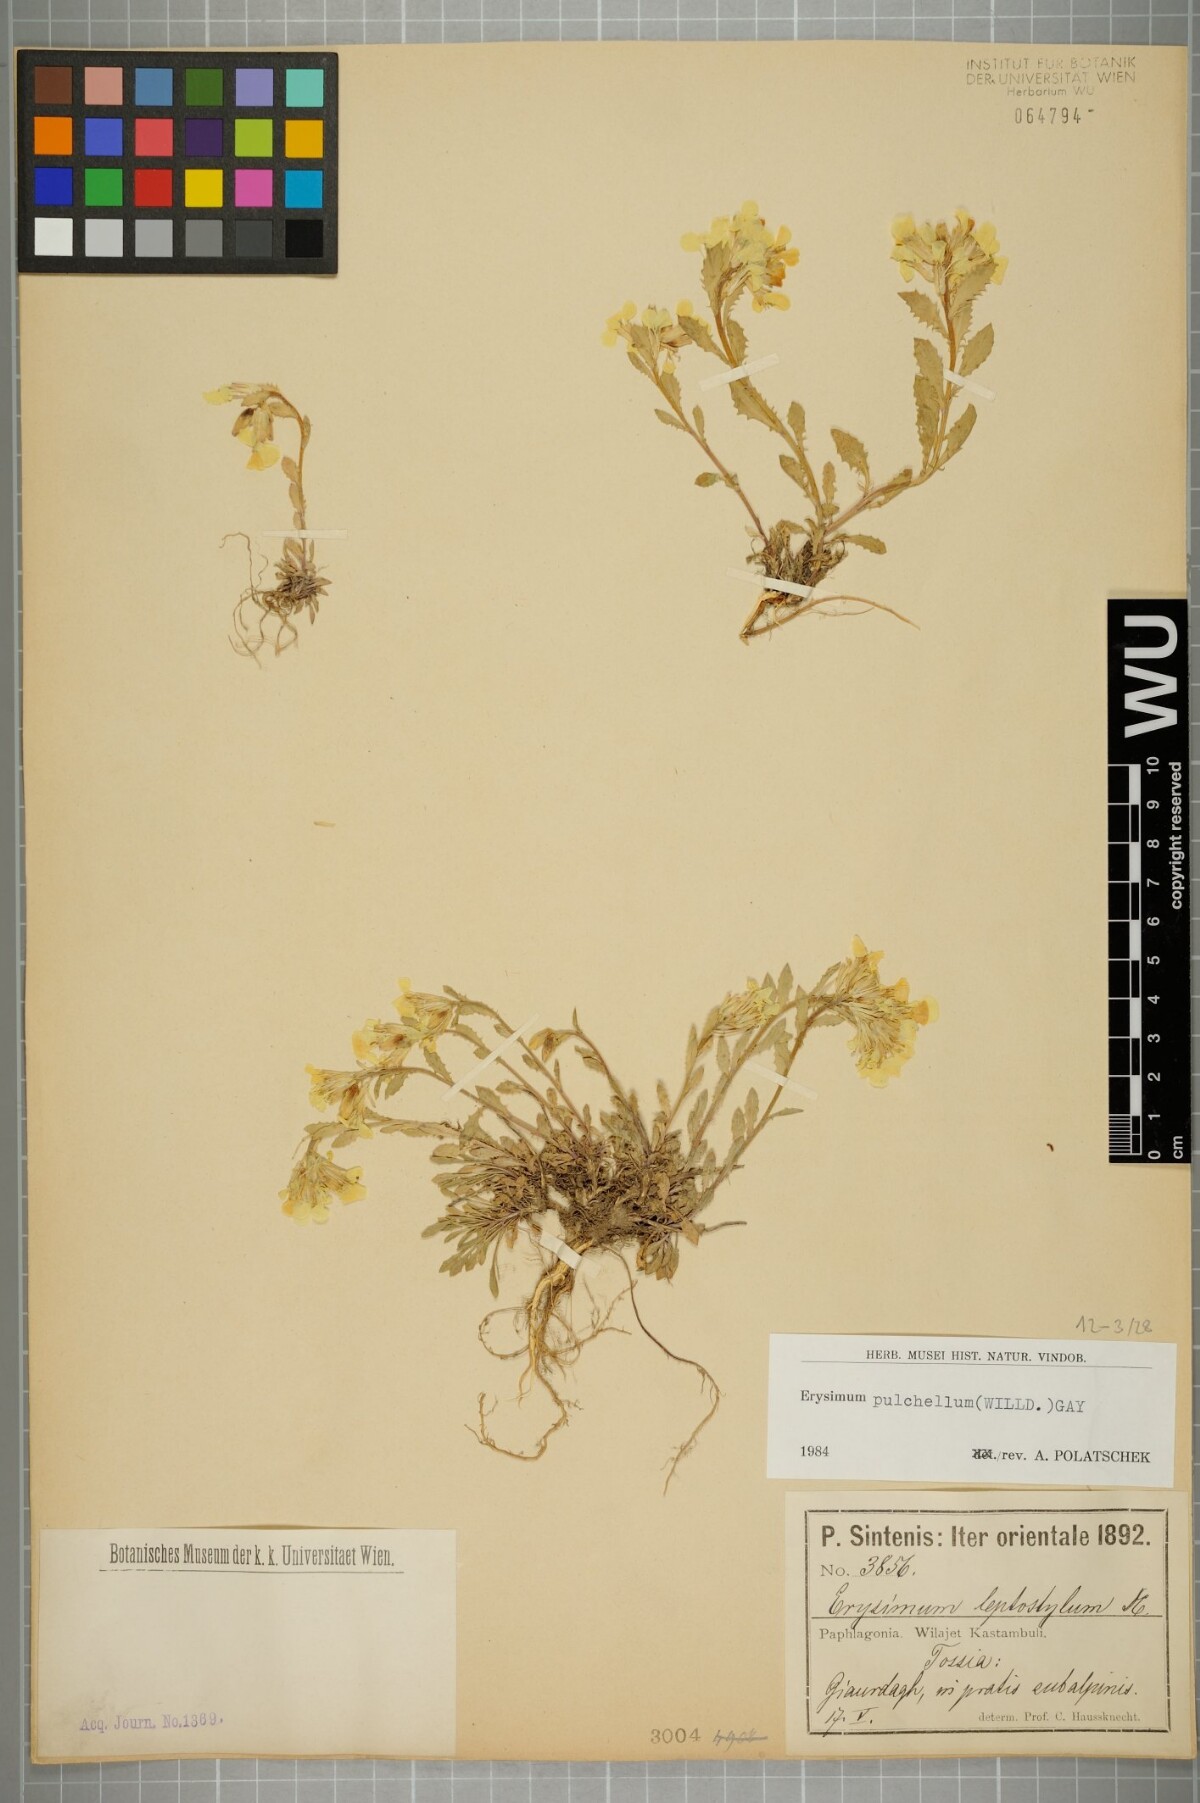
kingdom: Plantae
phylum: Tracheophyta
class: Magnoliopsida
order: Brassicales
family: Brassicaceae
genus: Erysimum
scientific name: Erysimum pulchellum
